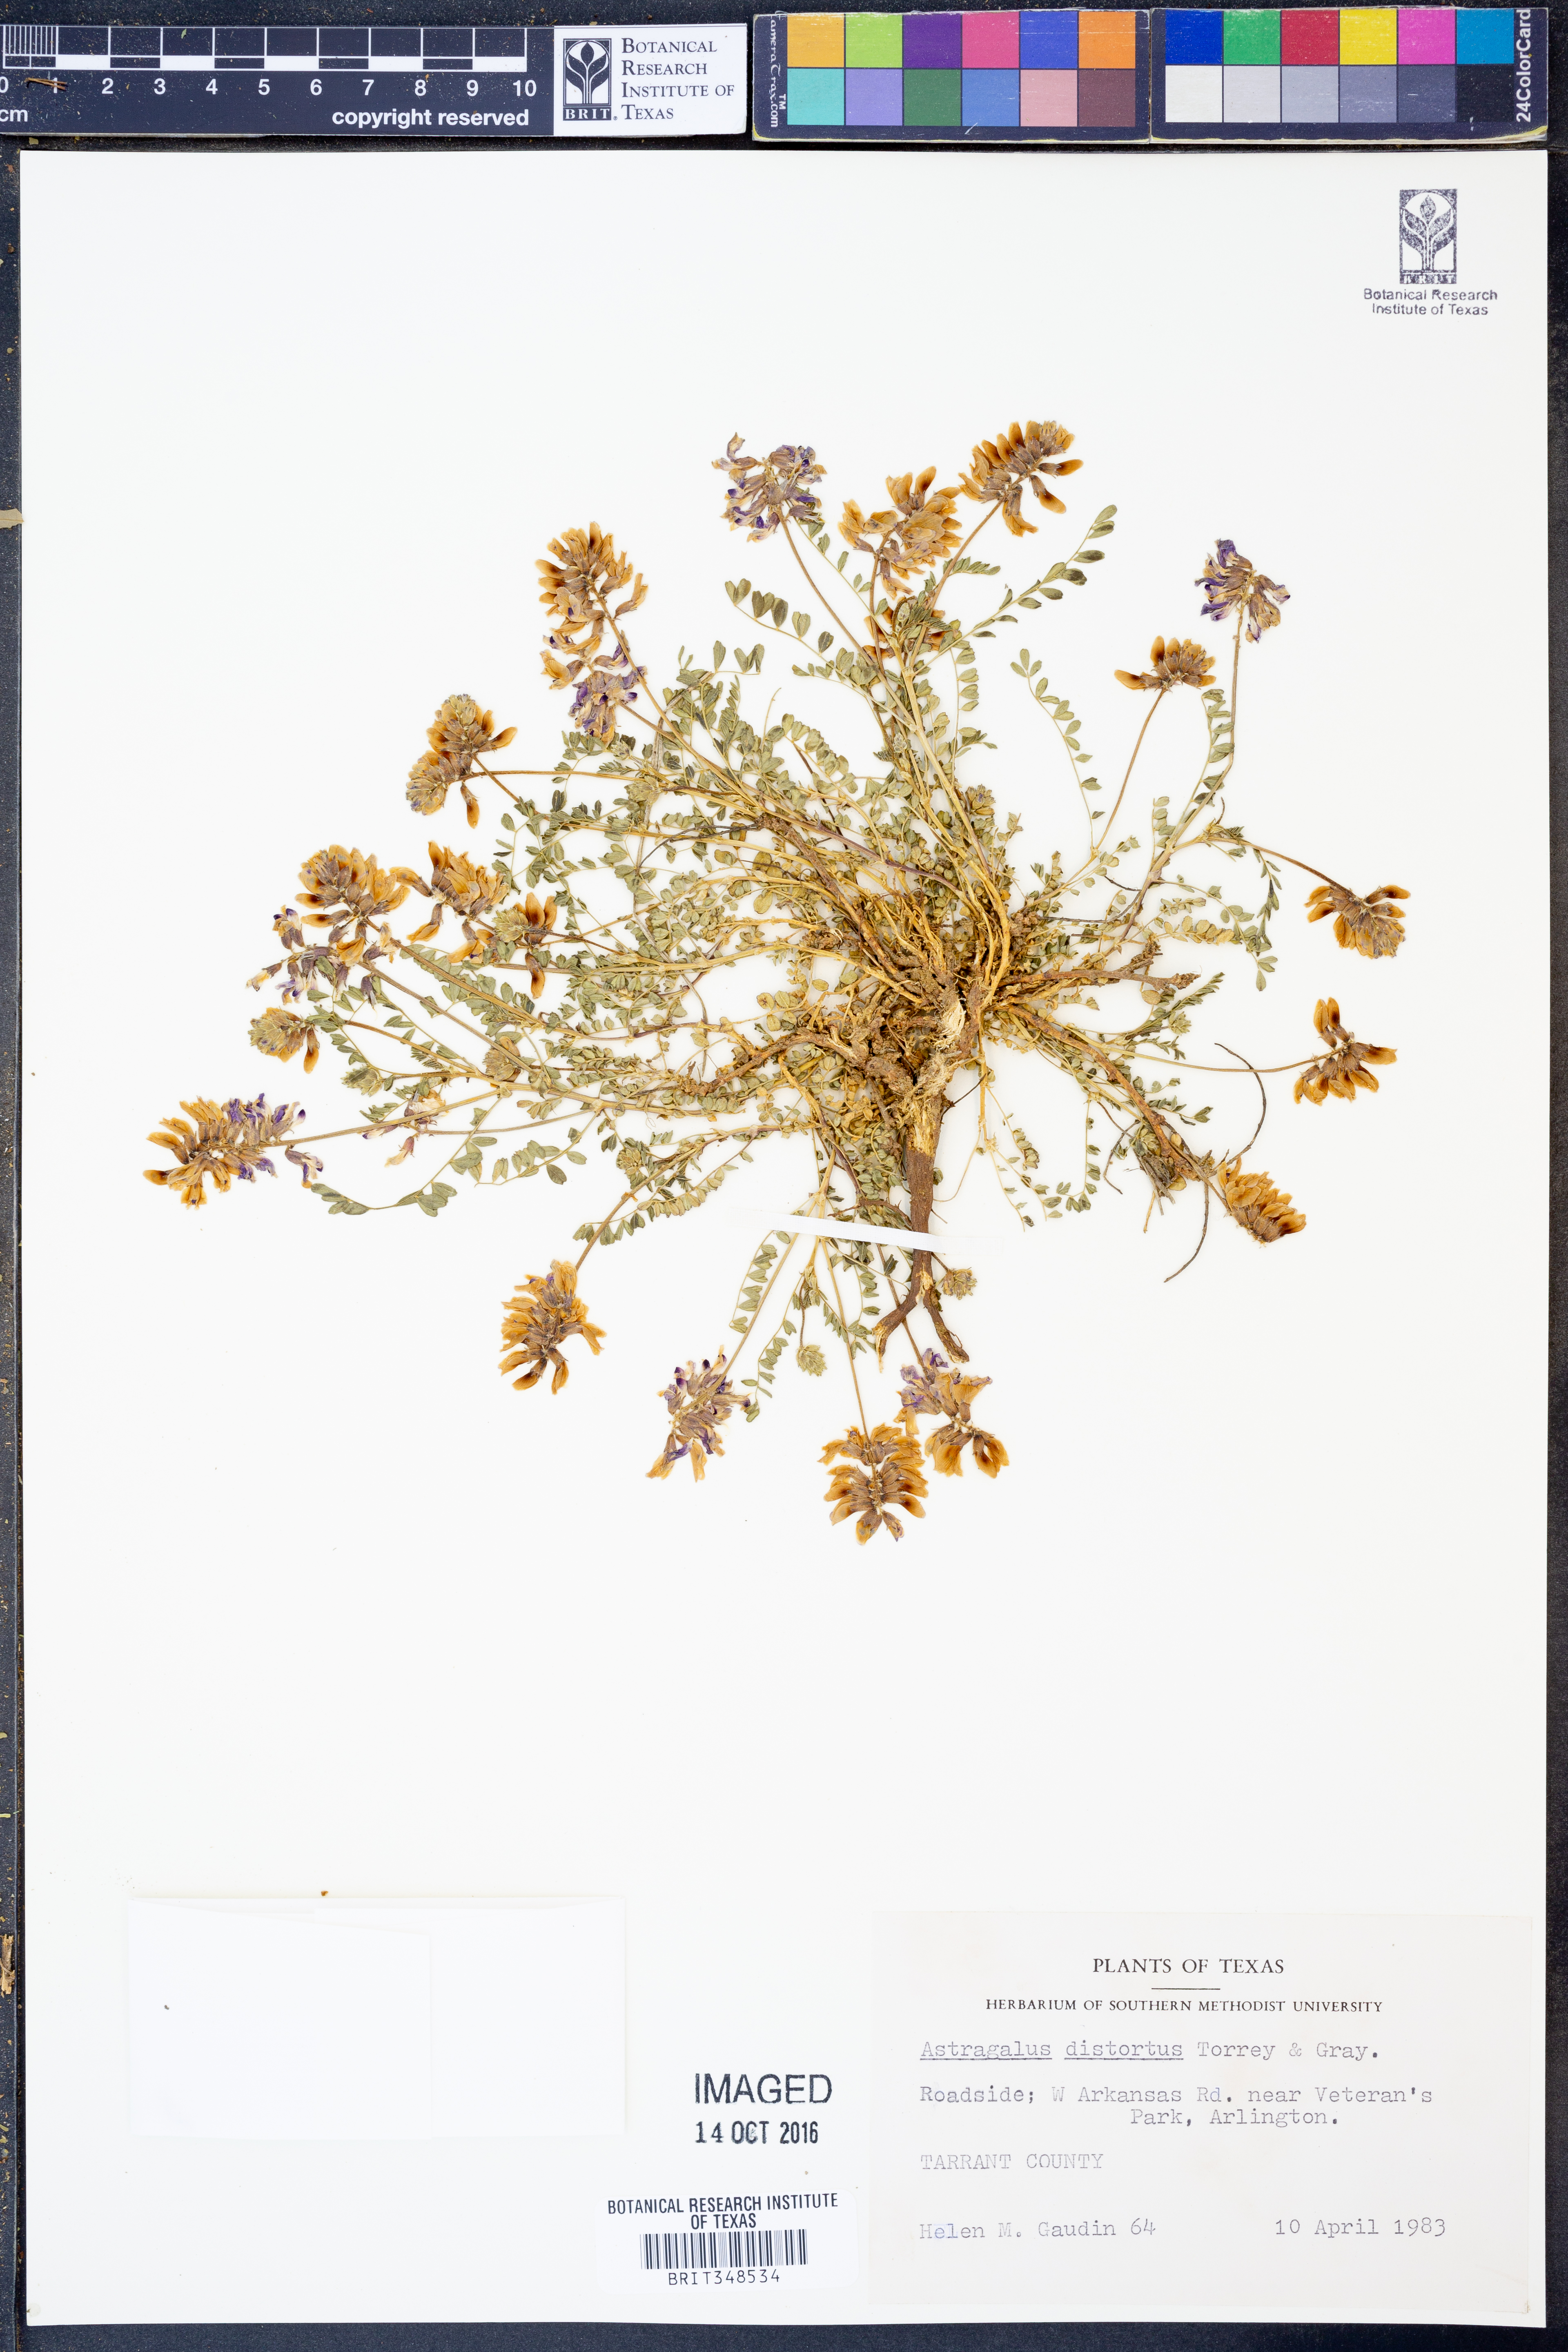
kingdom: Plantae
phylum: Tracheophyta
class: Magnoliopsida
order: Fabales
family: Fabaceae
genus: Astragalus
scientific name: Astragalus distortus
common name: Ozark milk-vetch
